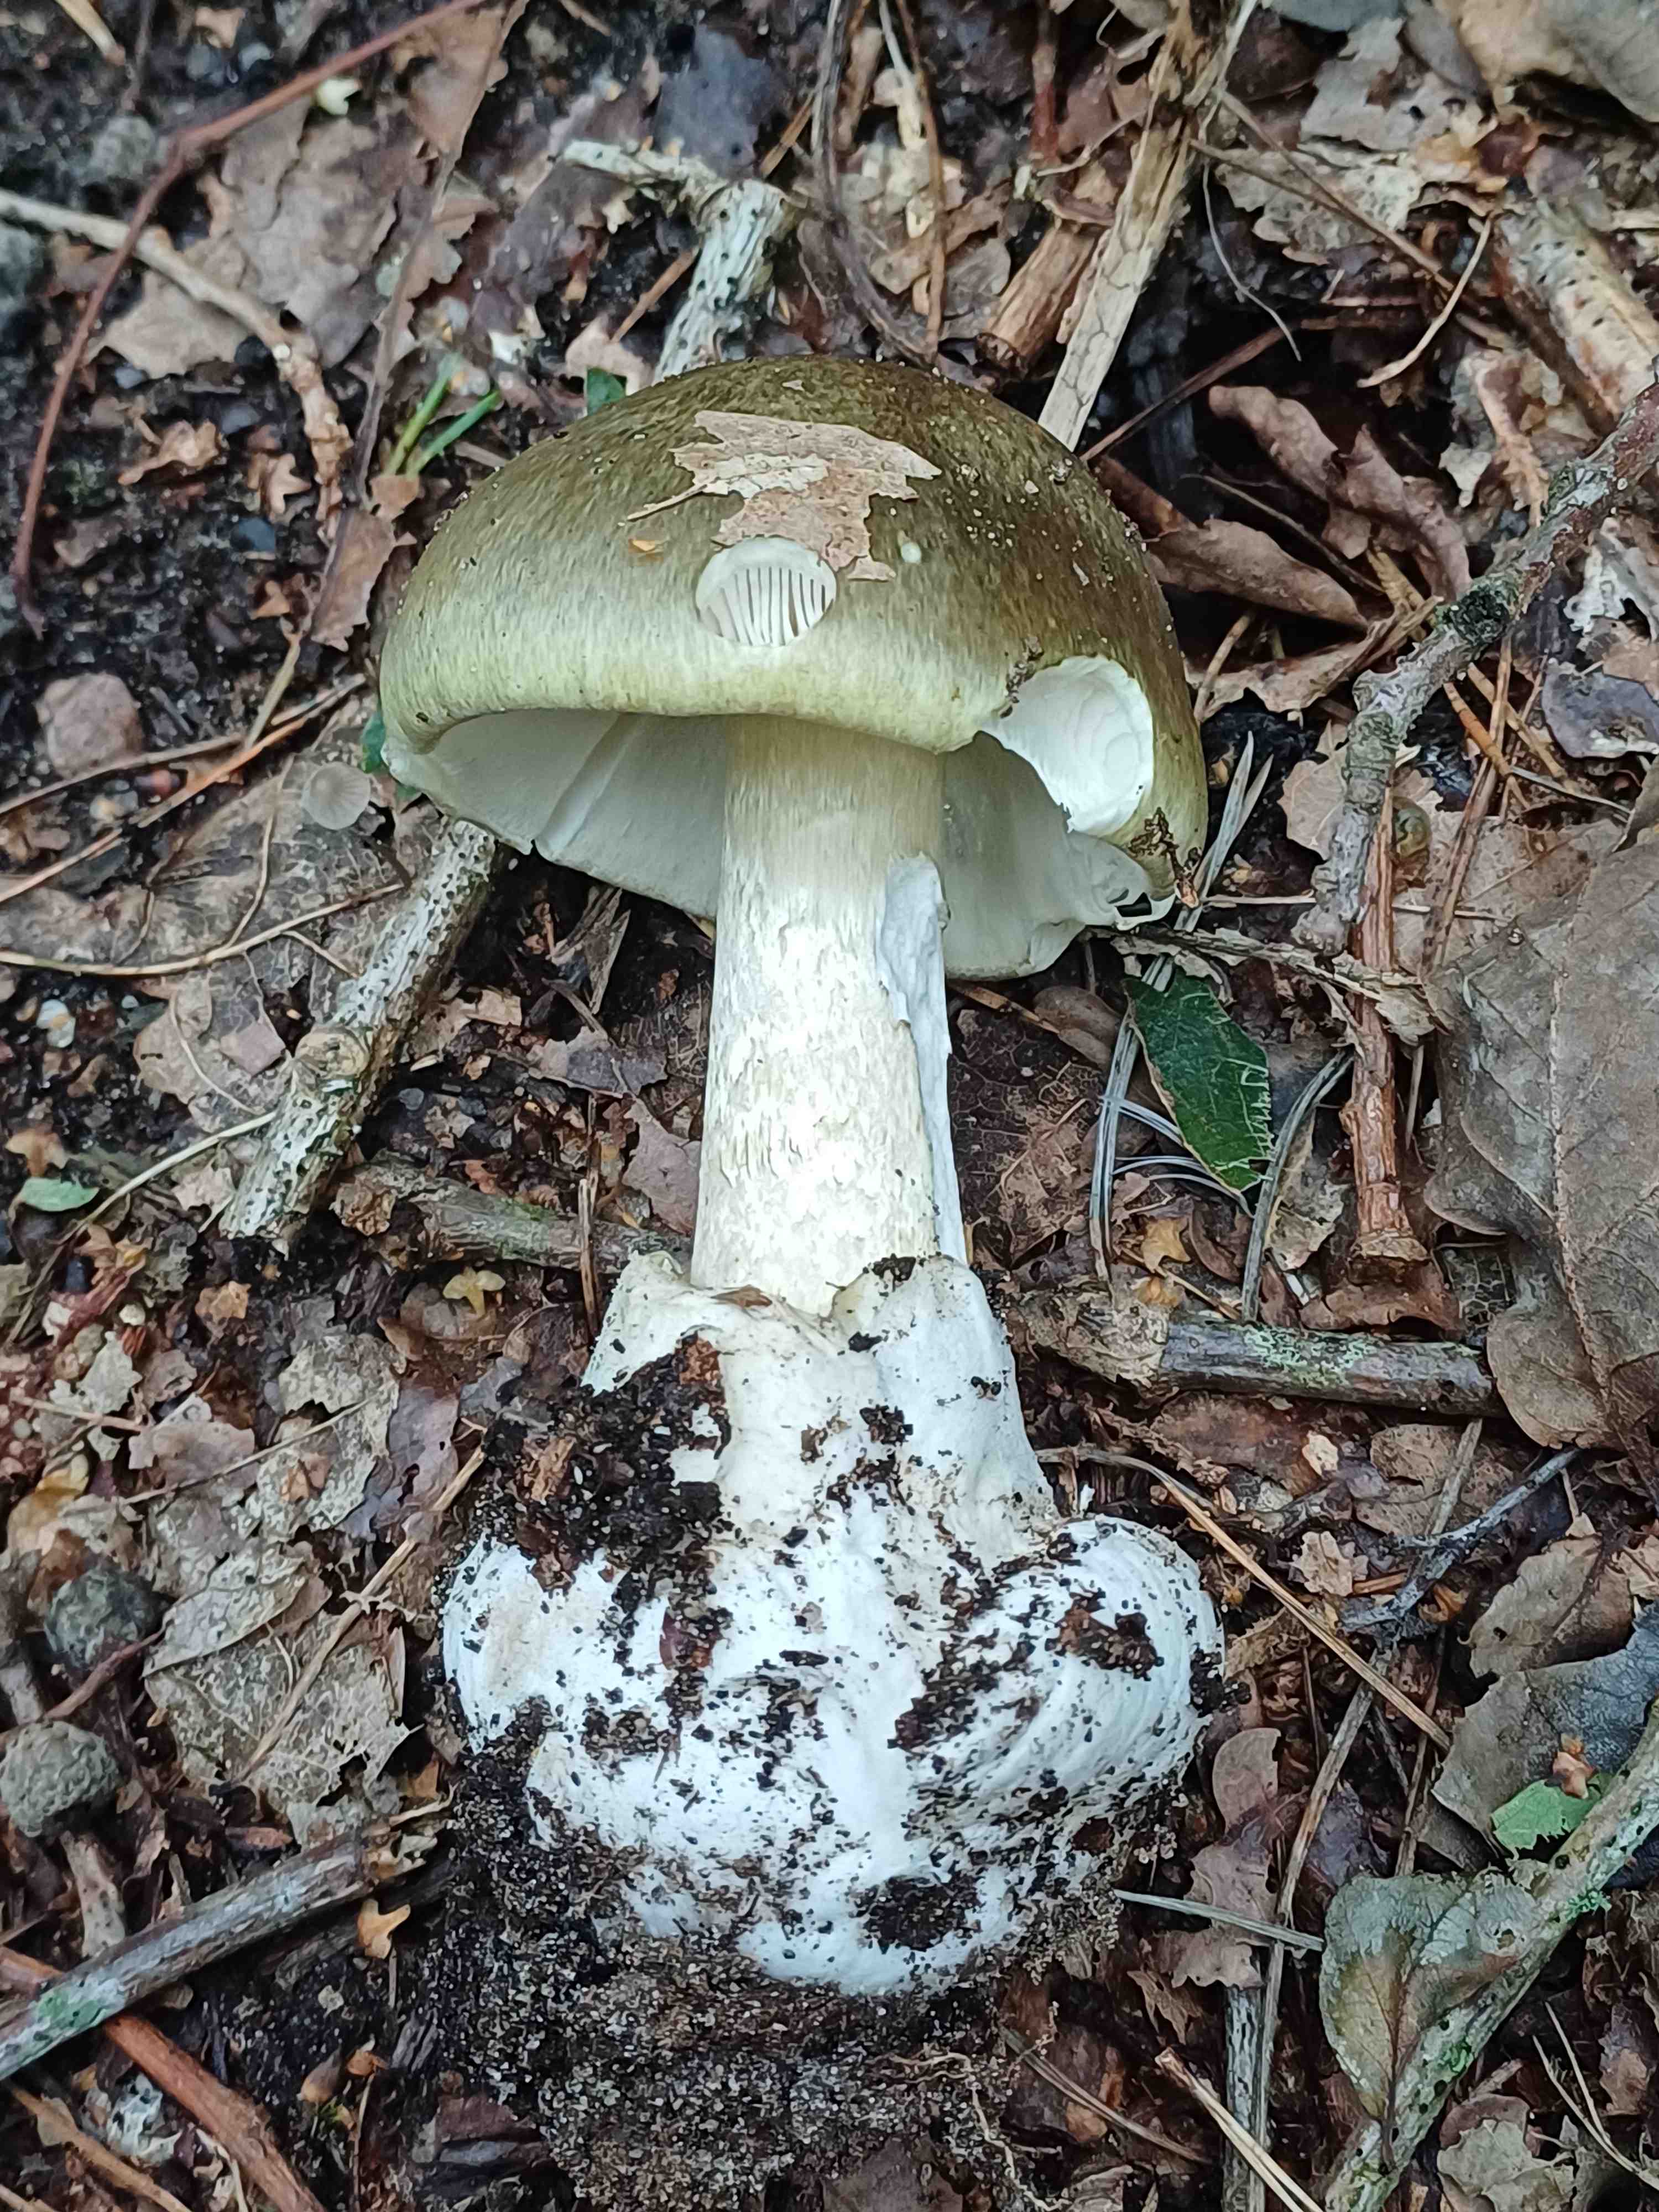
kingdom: Fungi
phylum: Basidiomycota
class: Agaricomycetes
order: Agaricales
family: Amanitaceae
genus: Amanita
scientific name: Amanita phalloides
